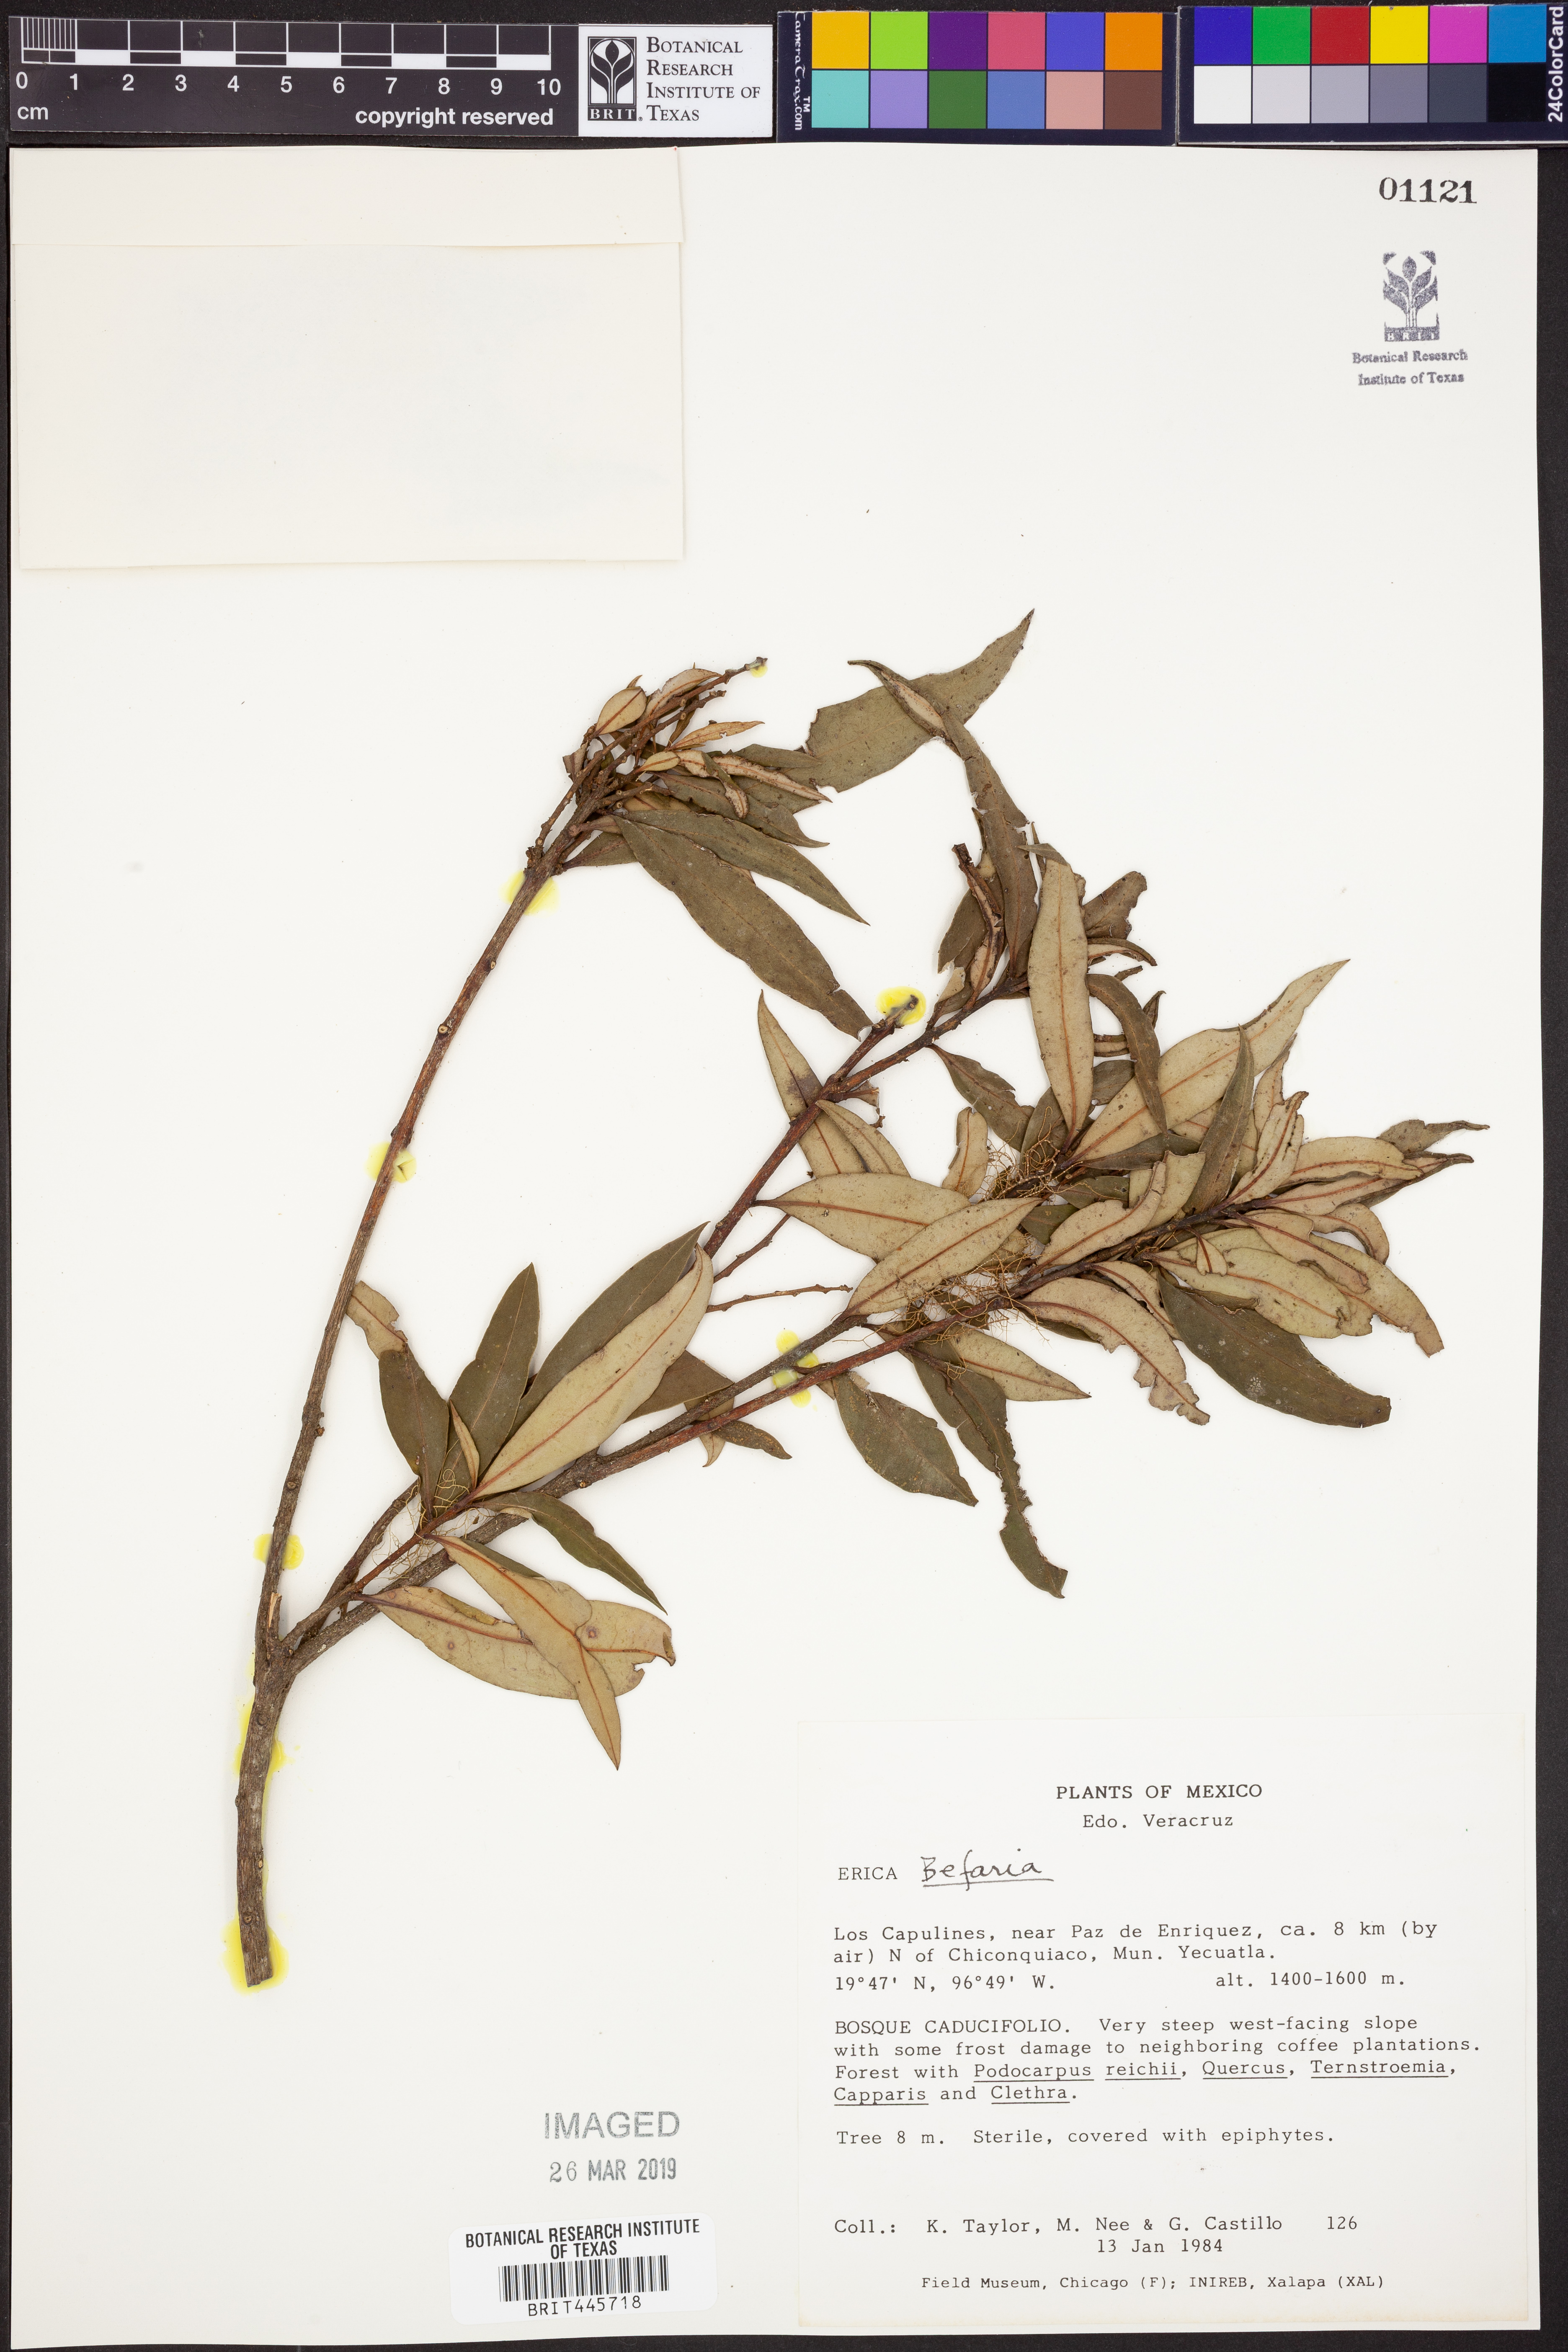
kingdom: Plantae
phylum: Tracheophyta
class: Magnoliopsida
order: Ericales
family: Ericaceae
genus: Befaria
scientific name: Befaria
